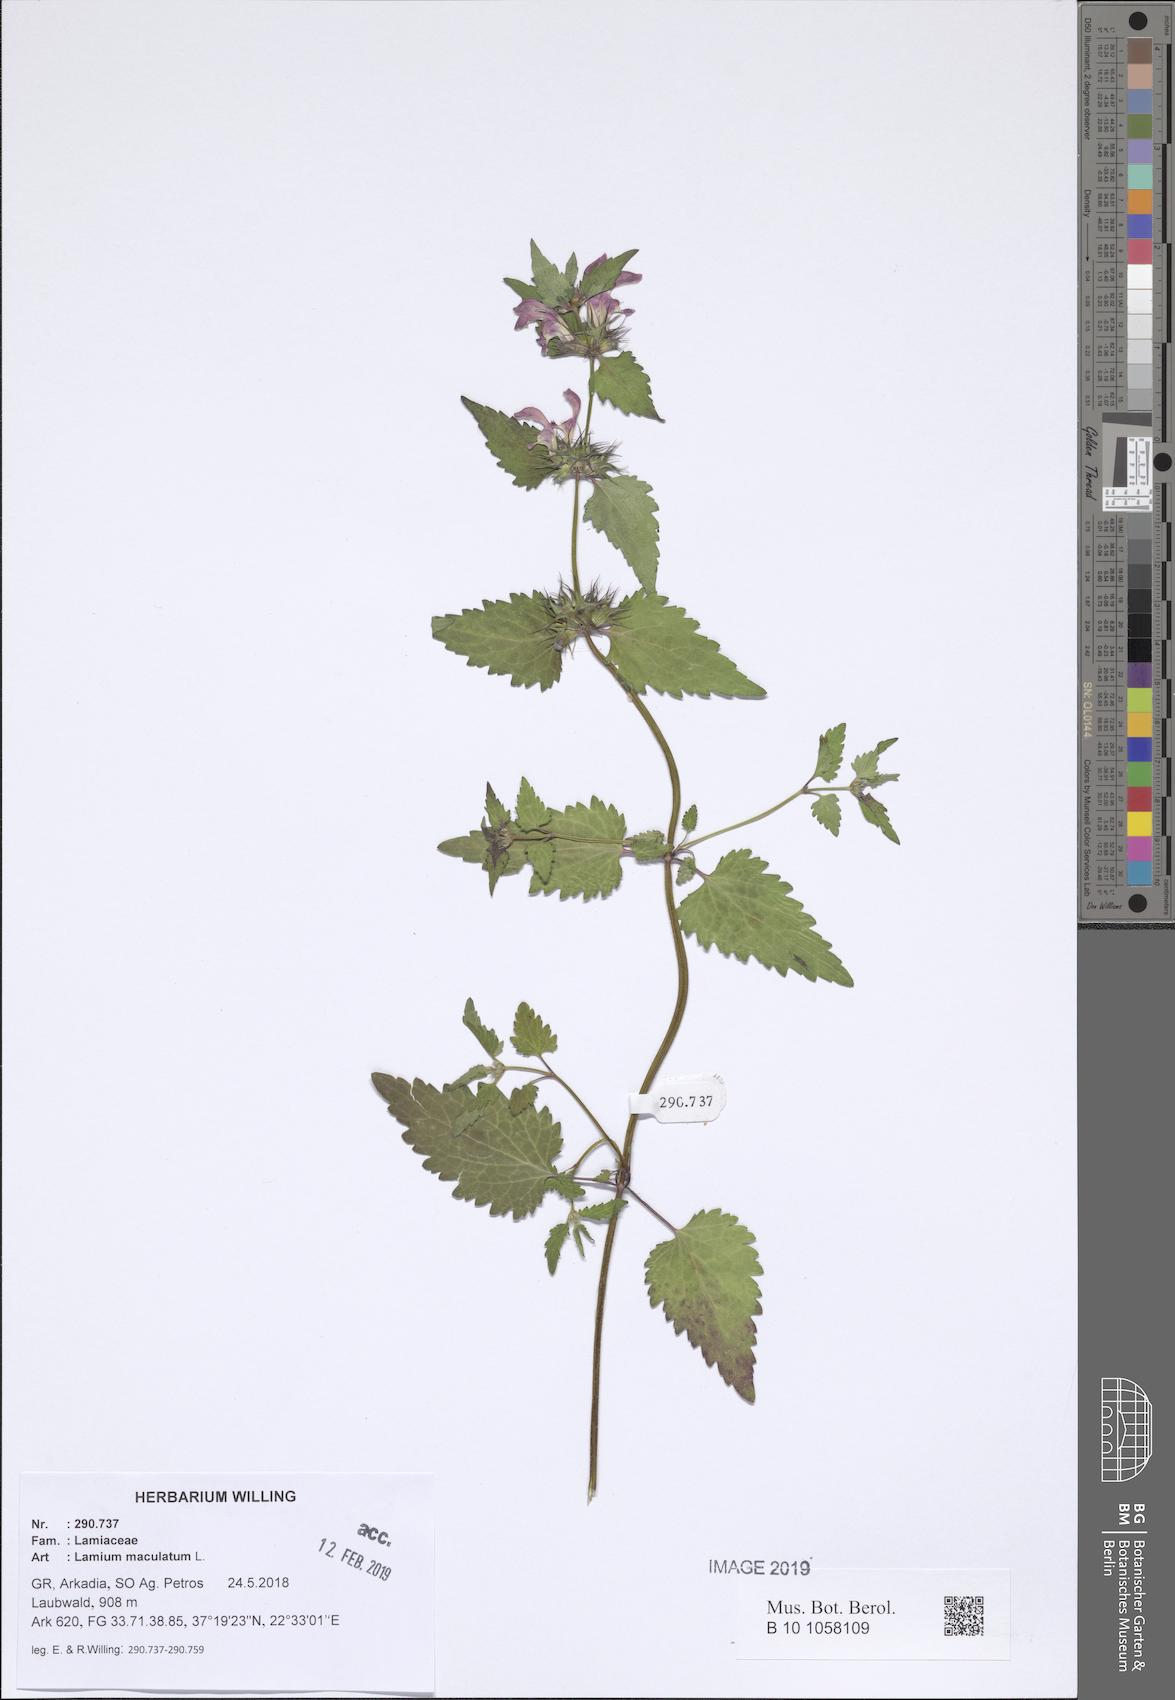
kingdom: Plantae
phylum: Tracheophyta
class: Magnoliopsida
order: Lamiales
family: Lamiaceae
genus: Lamium
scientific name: Lamium maculatum
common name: Spotted dead-nettle
